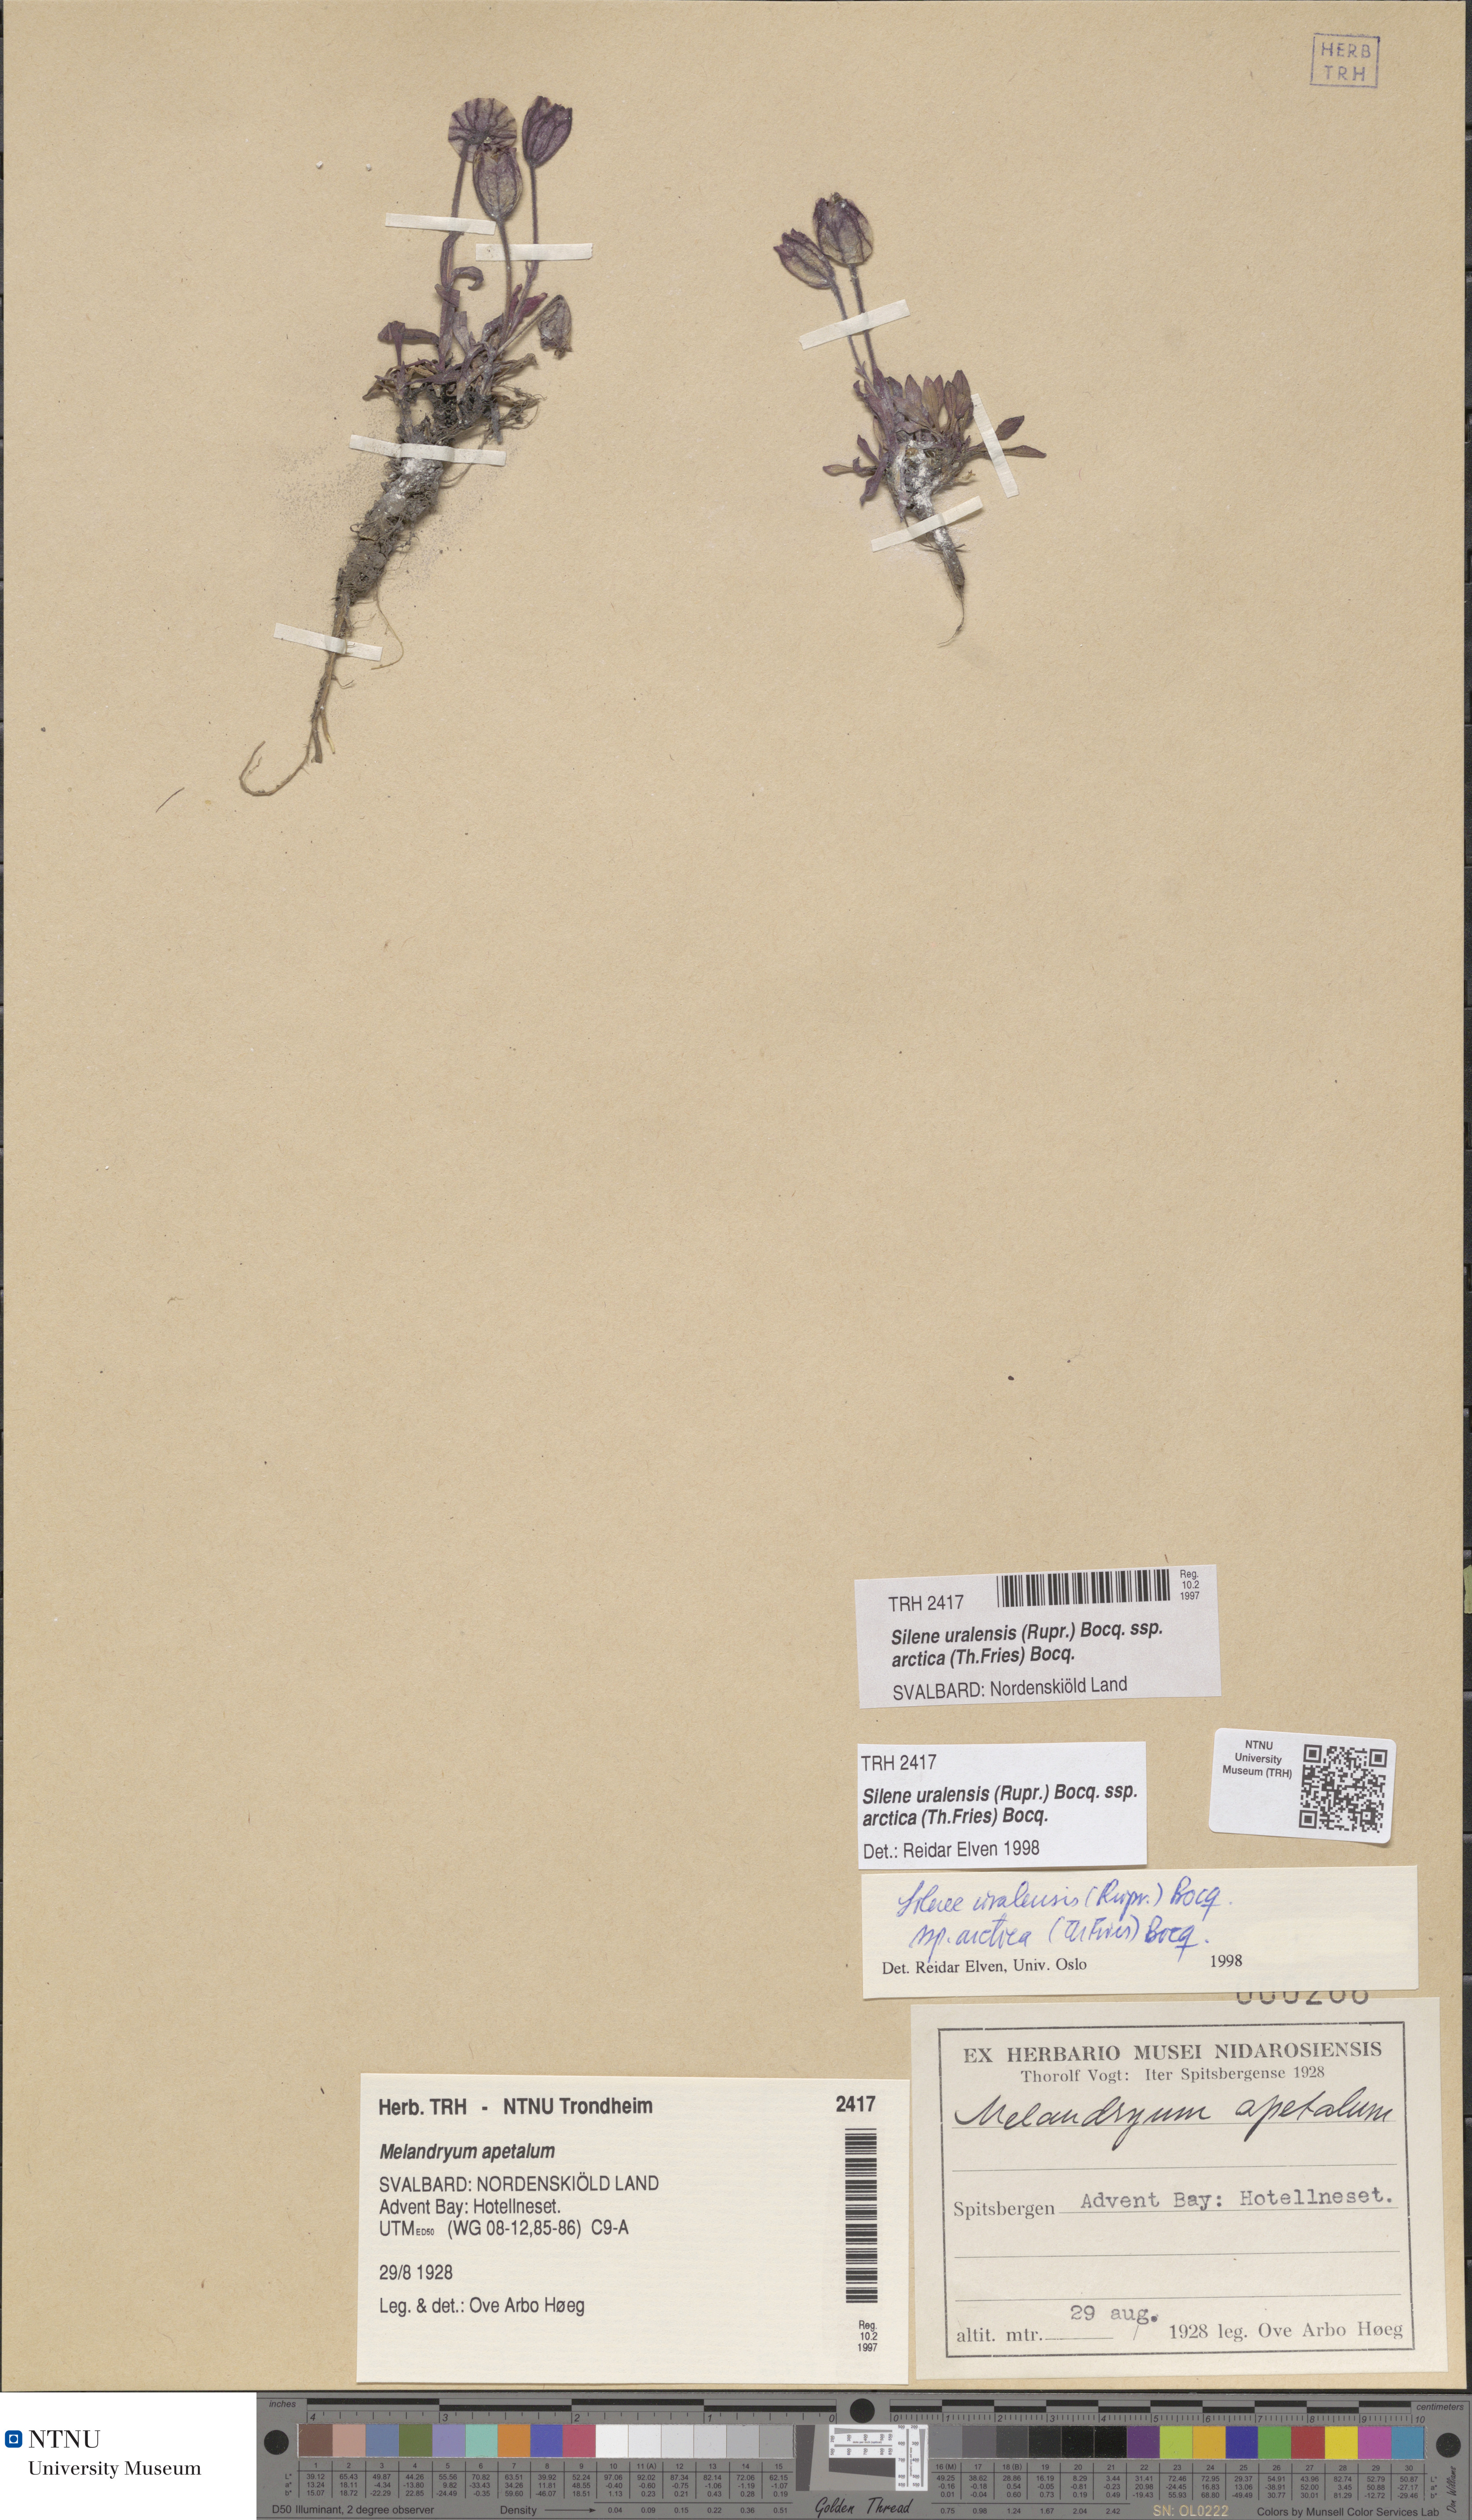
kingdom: Plantae
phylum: Tracheophyta
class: Magnoliopsida
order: Caryophyllales
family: Caryophyllaceae
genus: Silene
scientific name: Silene uralensis
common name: Nodding campion
